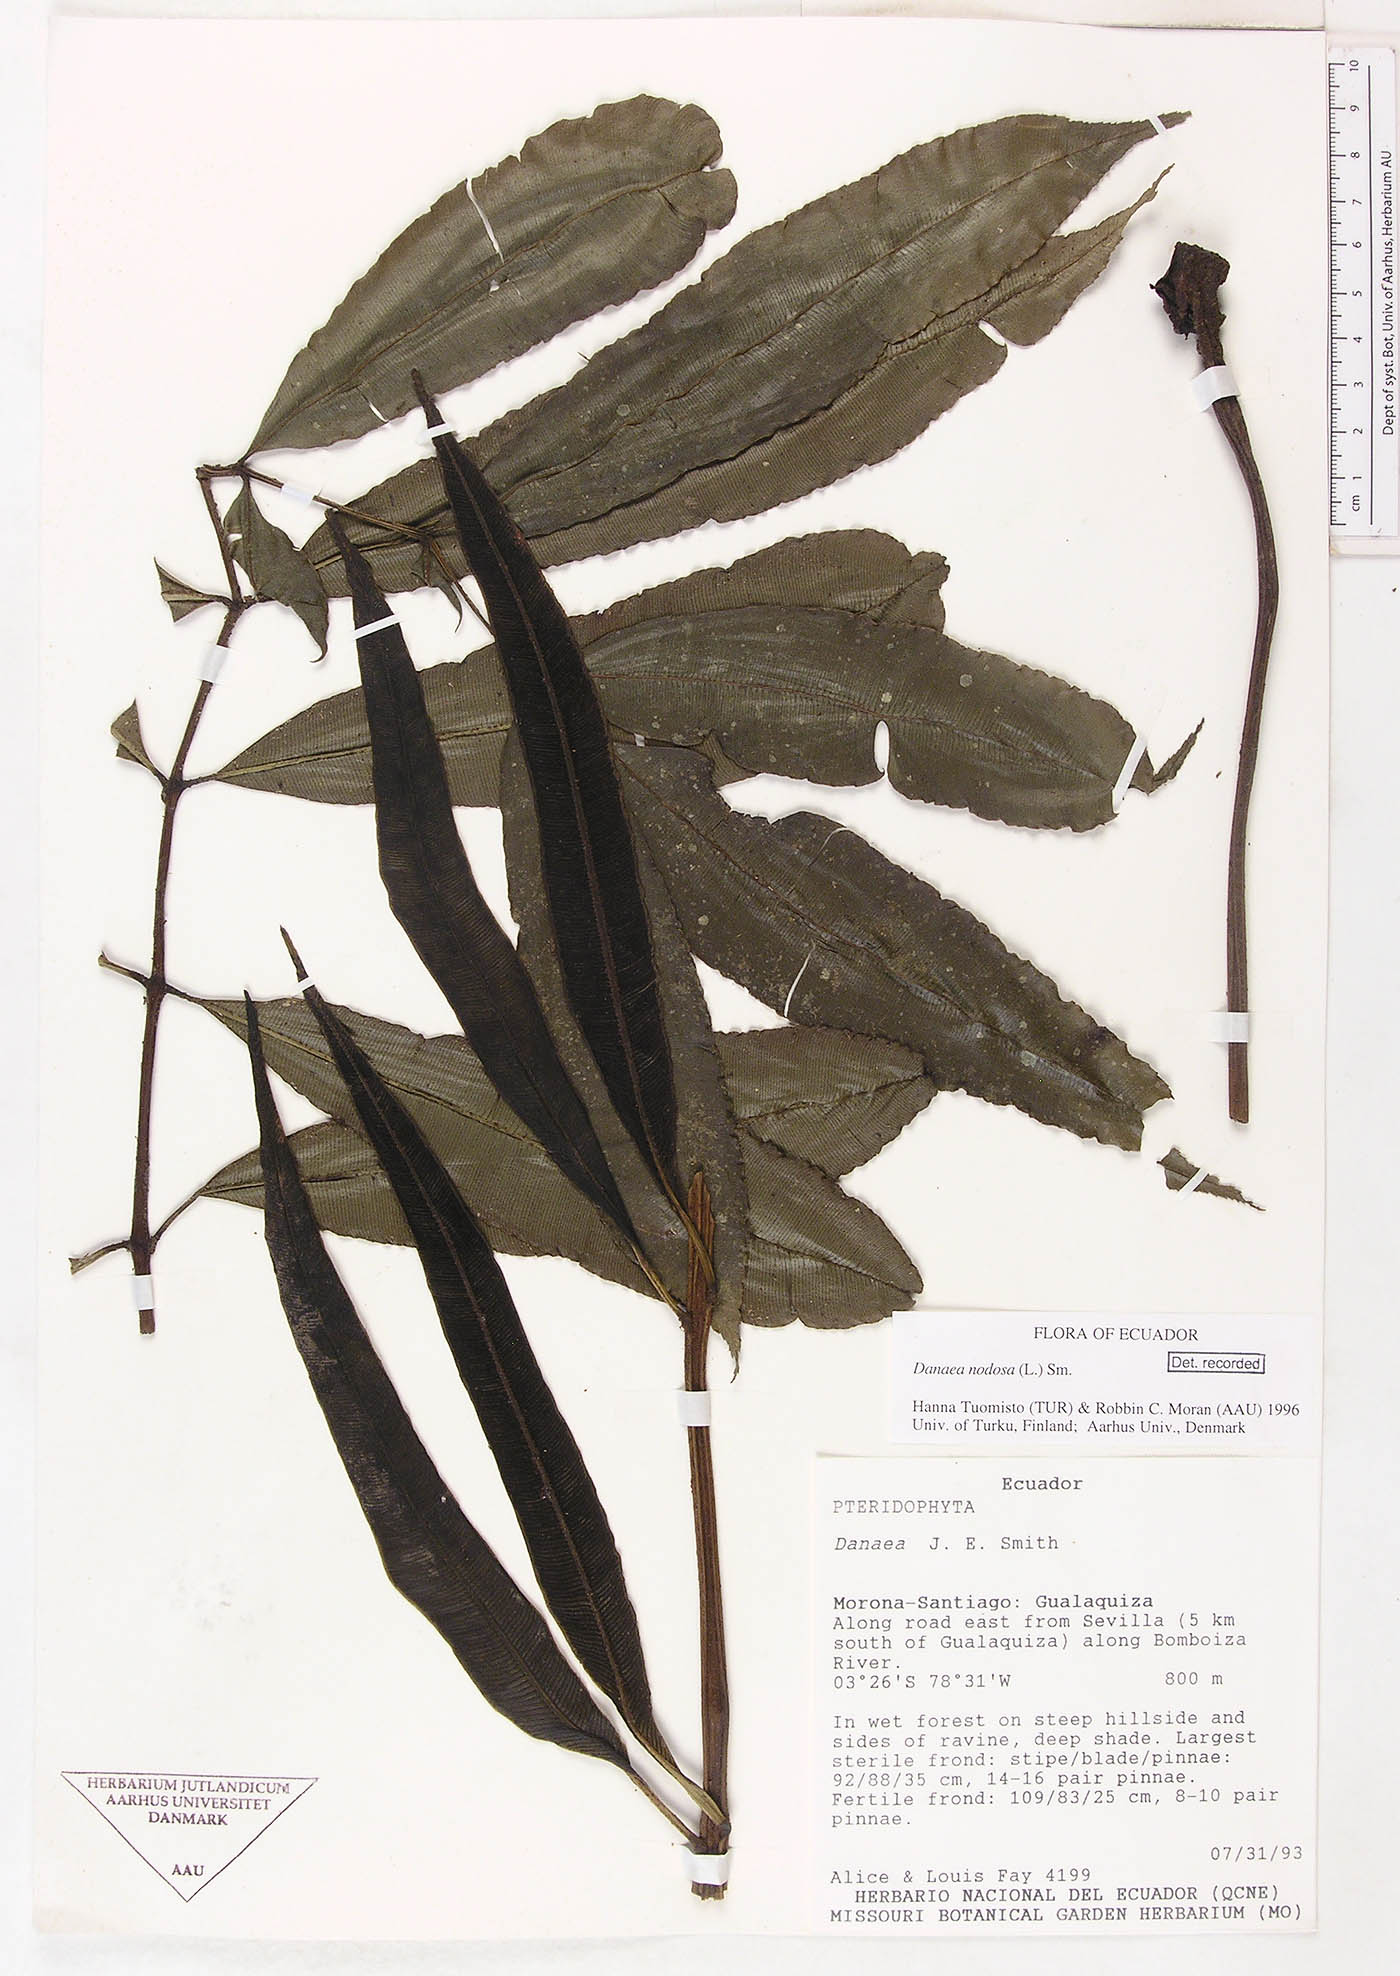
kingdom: Plantae
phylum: Tracheophyta
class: Polypodiopsida
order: Marattiales
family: Marattiaceae
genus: Danaea
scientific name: Danaea nodosa
